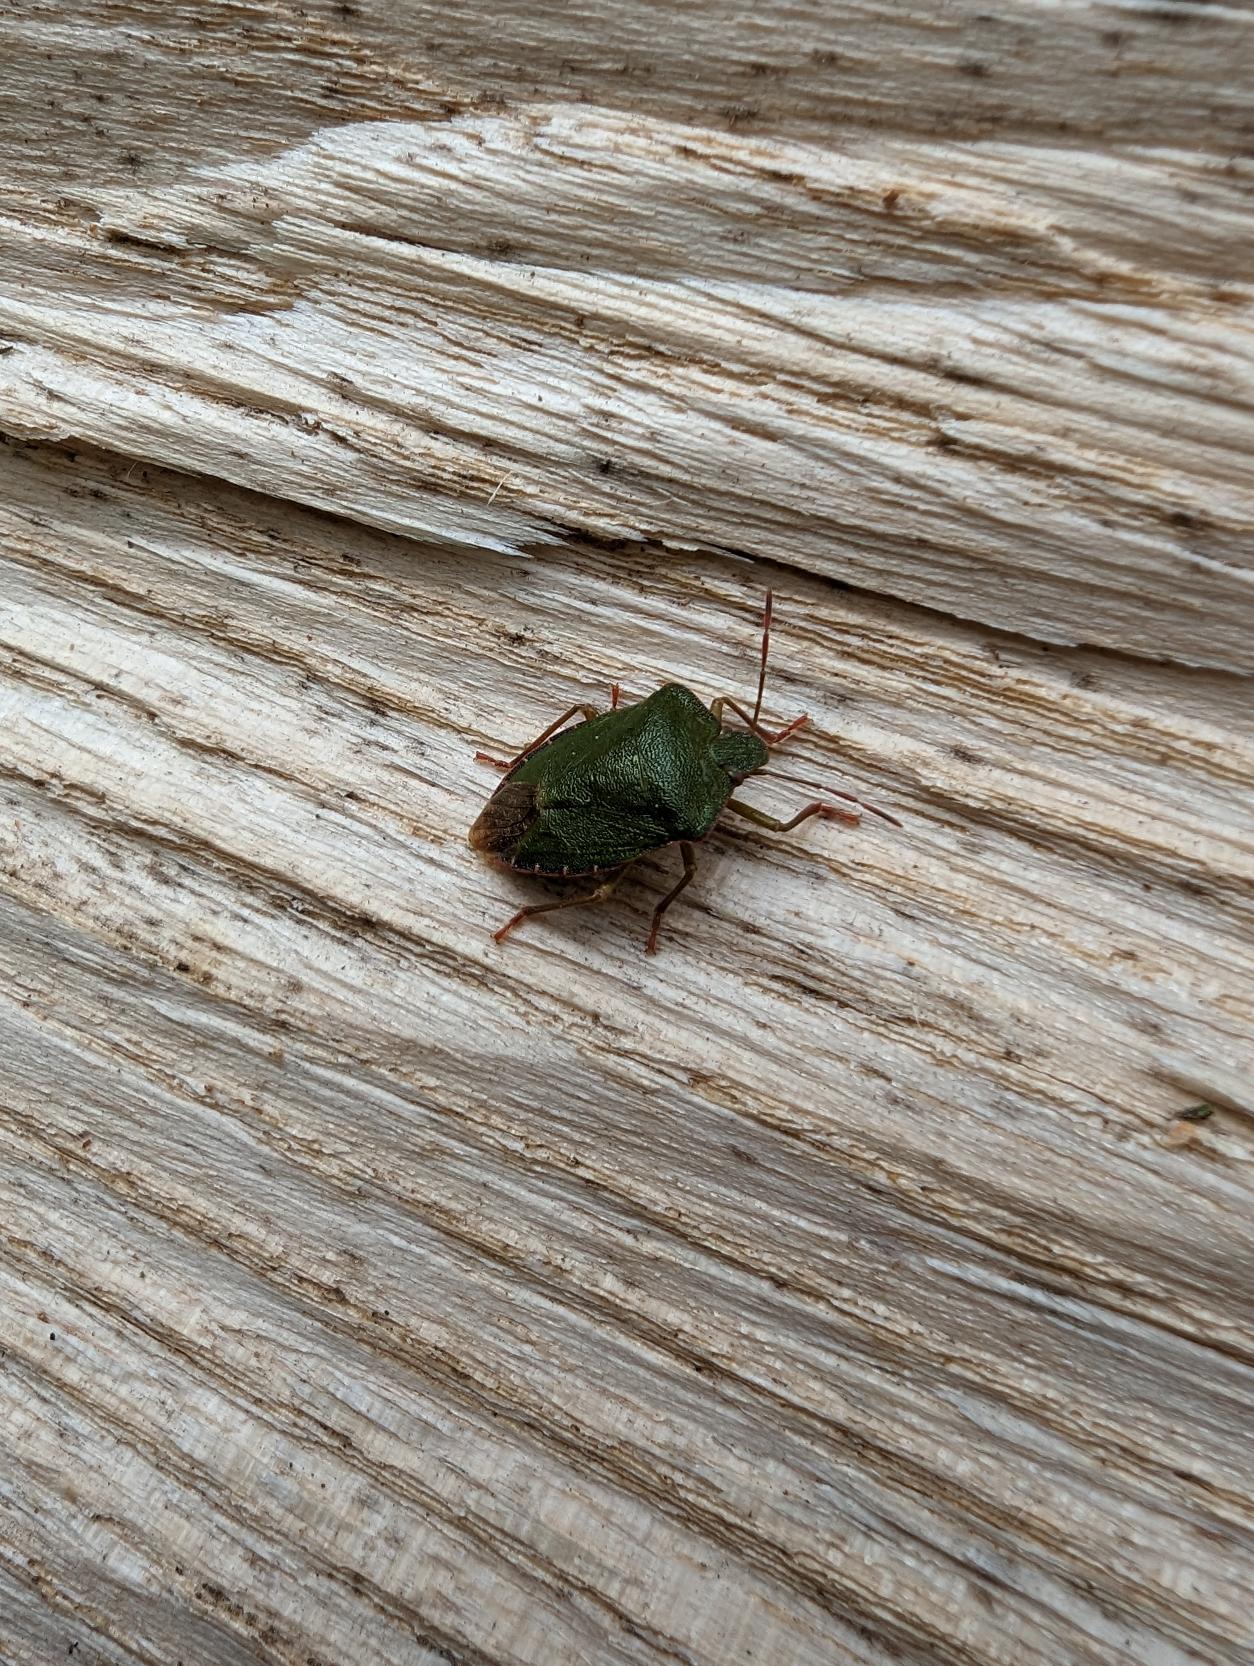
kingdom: Animalia
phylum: Arthropoda
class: Insecta
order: Hemiptera
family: Pentatomidae
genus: Palomena
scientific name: Palomena prasina
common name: Grøn bredtæge
